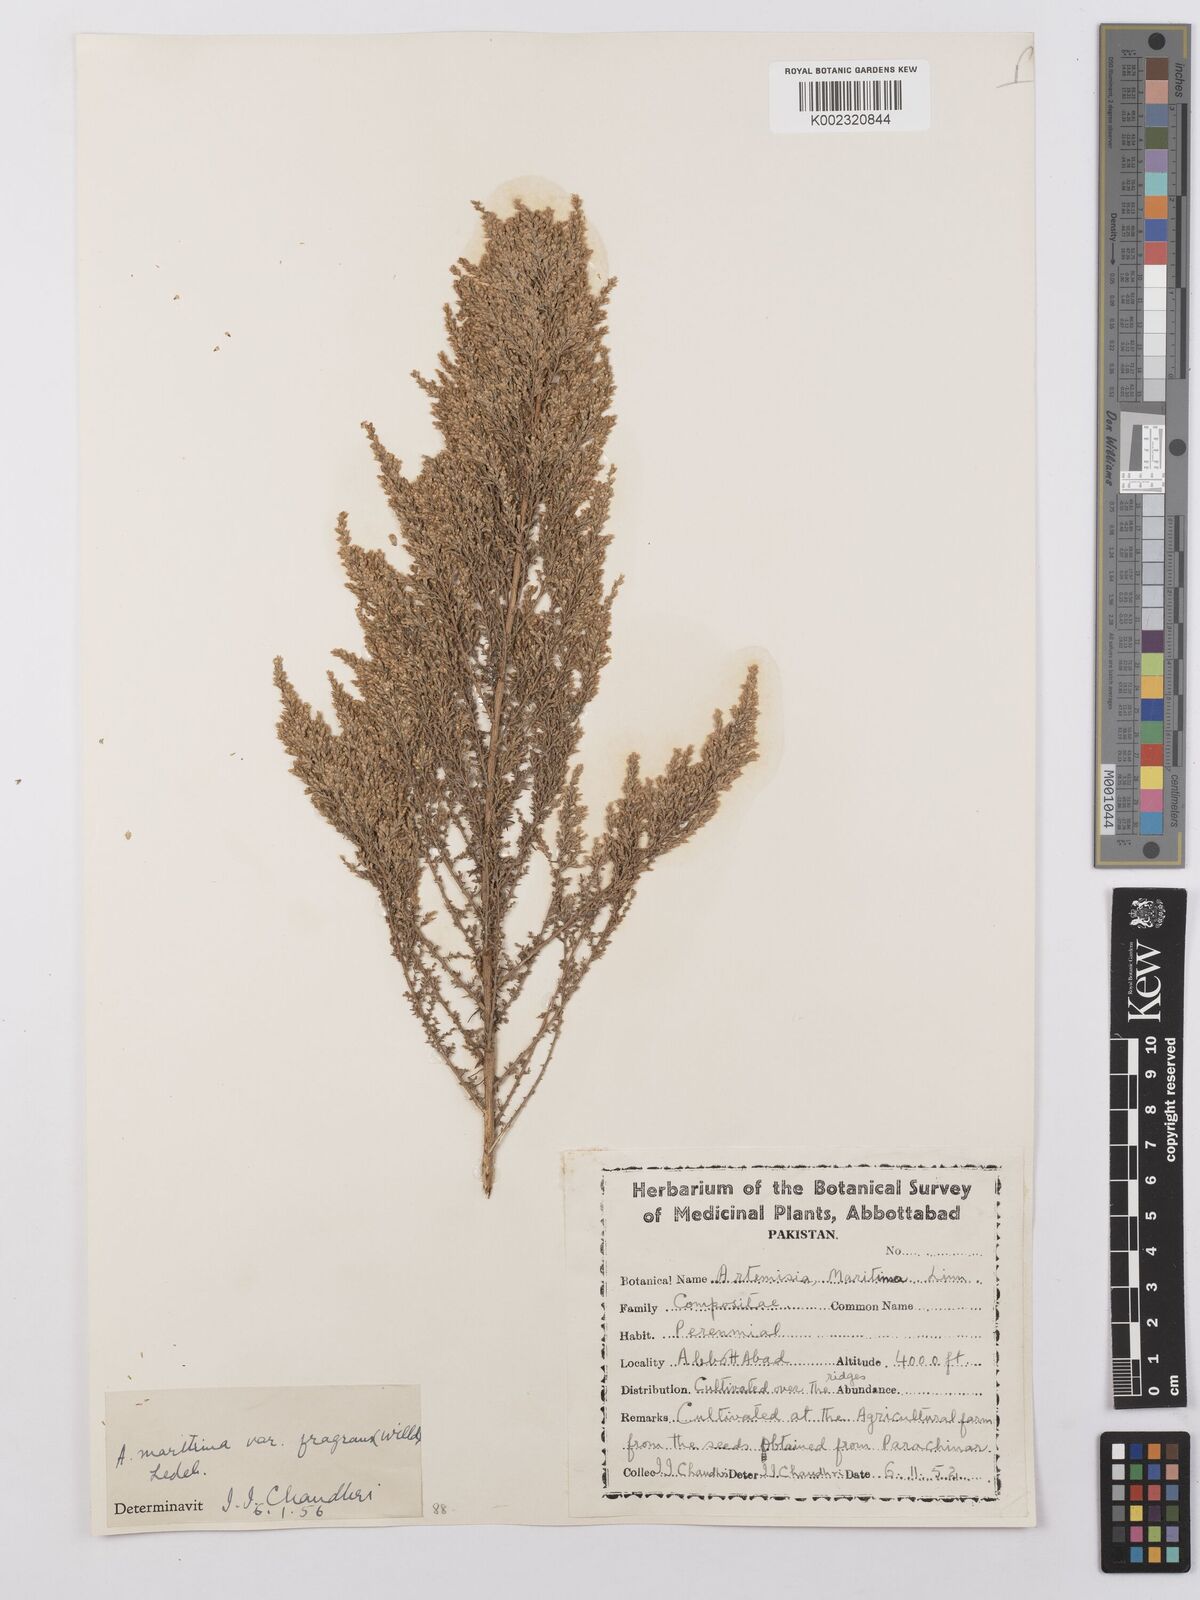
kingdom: Plantae
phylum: Tracheophyta
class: Magnoliopsida
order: Asterales
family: Asteraceae
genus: Artemisia
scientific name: Artemisia kurramensis
